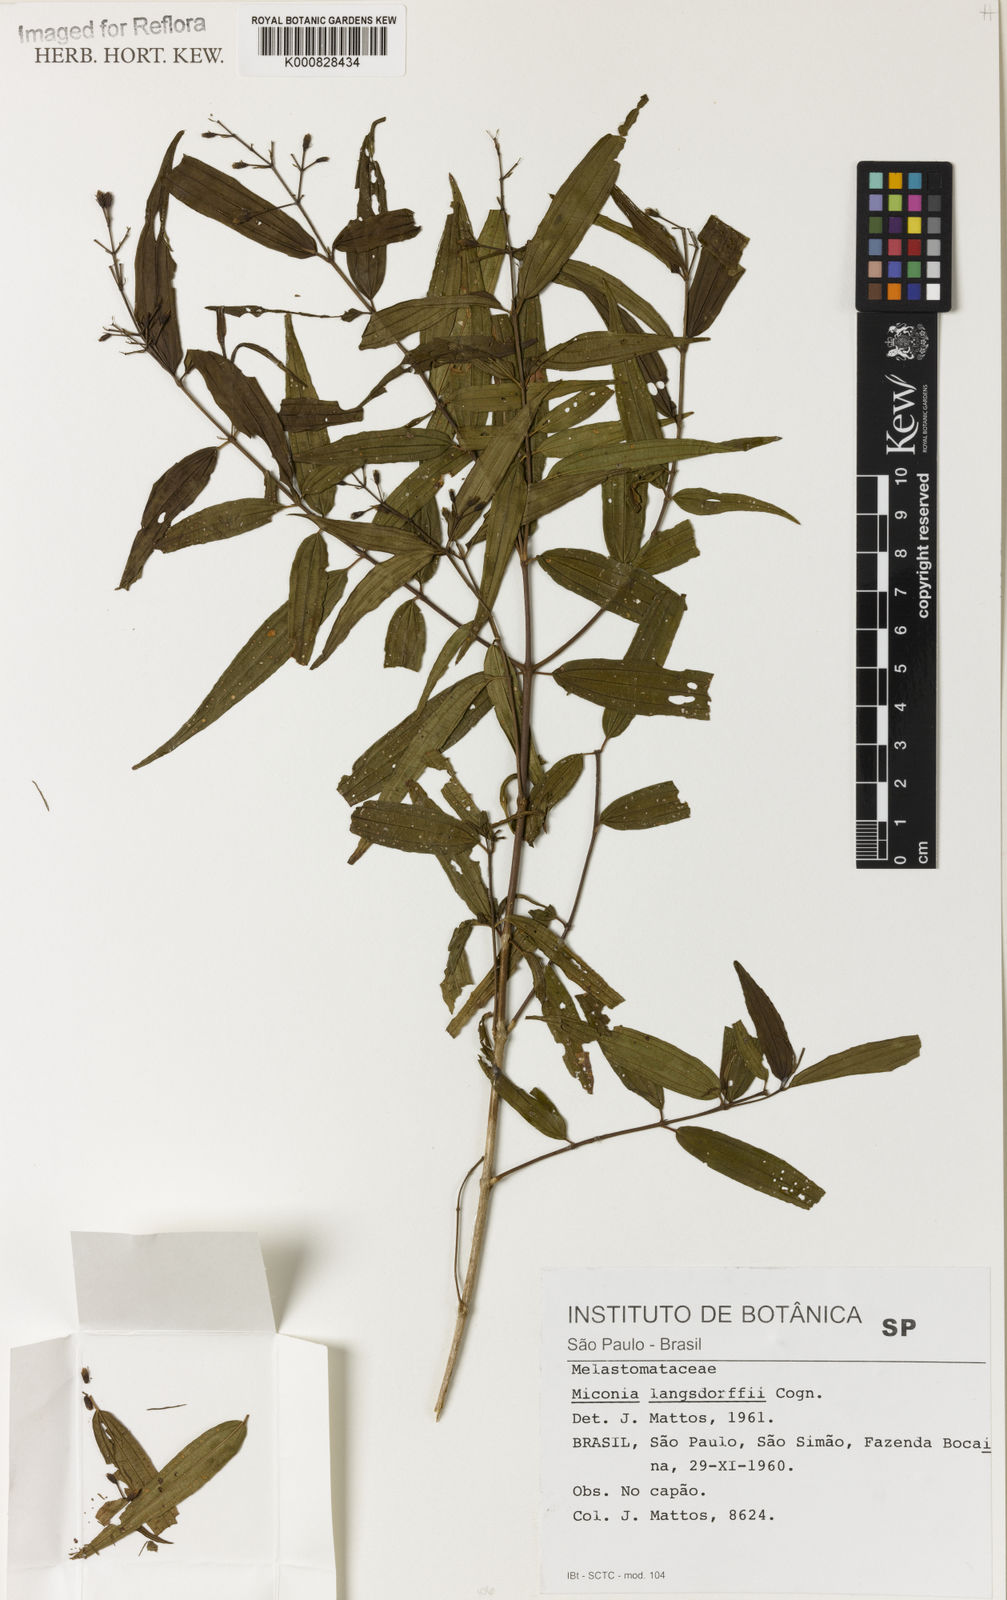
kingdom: Plantae
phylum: Tracheophyta
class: Magnoliopsida
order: Myrtales
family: Melastomataceae
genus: Miconia
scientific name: Miconia langsdorffii
